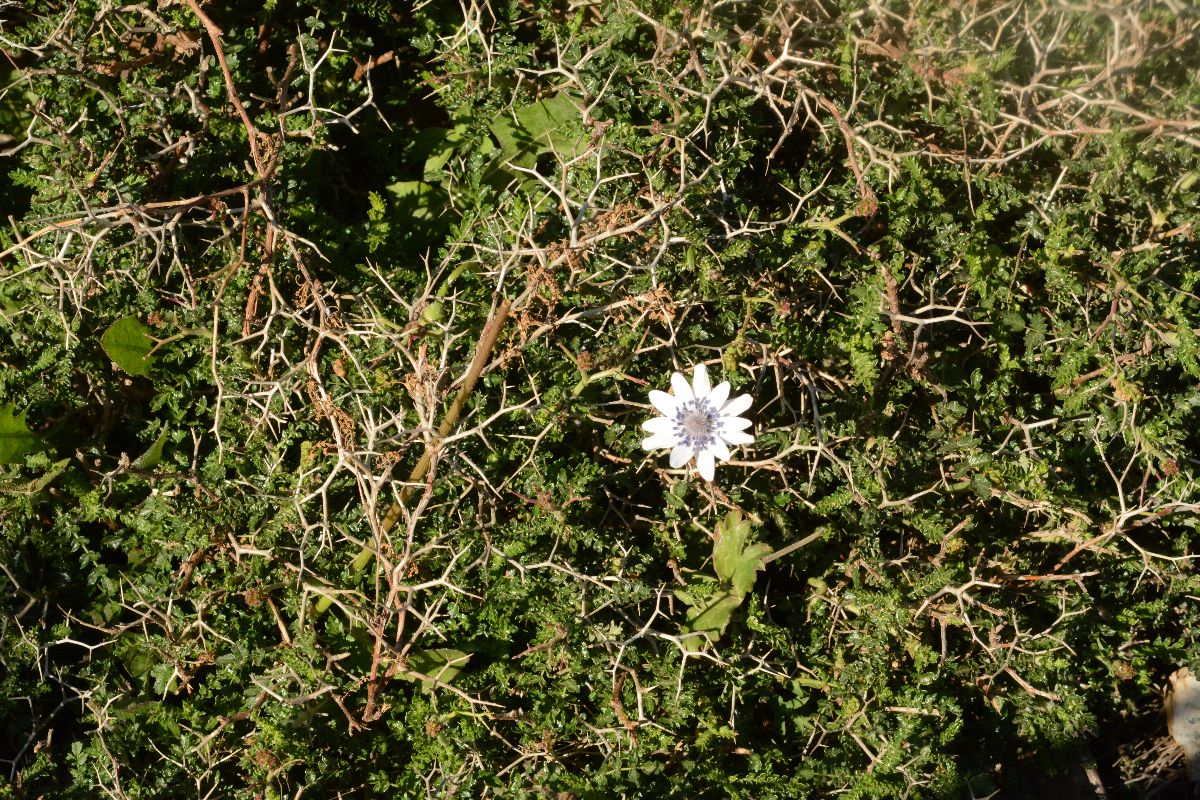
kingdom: Plantae
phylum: Tracheophyta
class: Magnoliopsida
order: Rosales
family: Rosaceae
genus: Sarcopoterium
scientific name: Sarcopoterium spinosum
